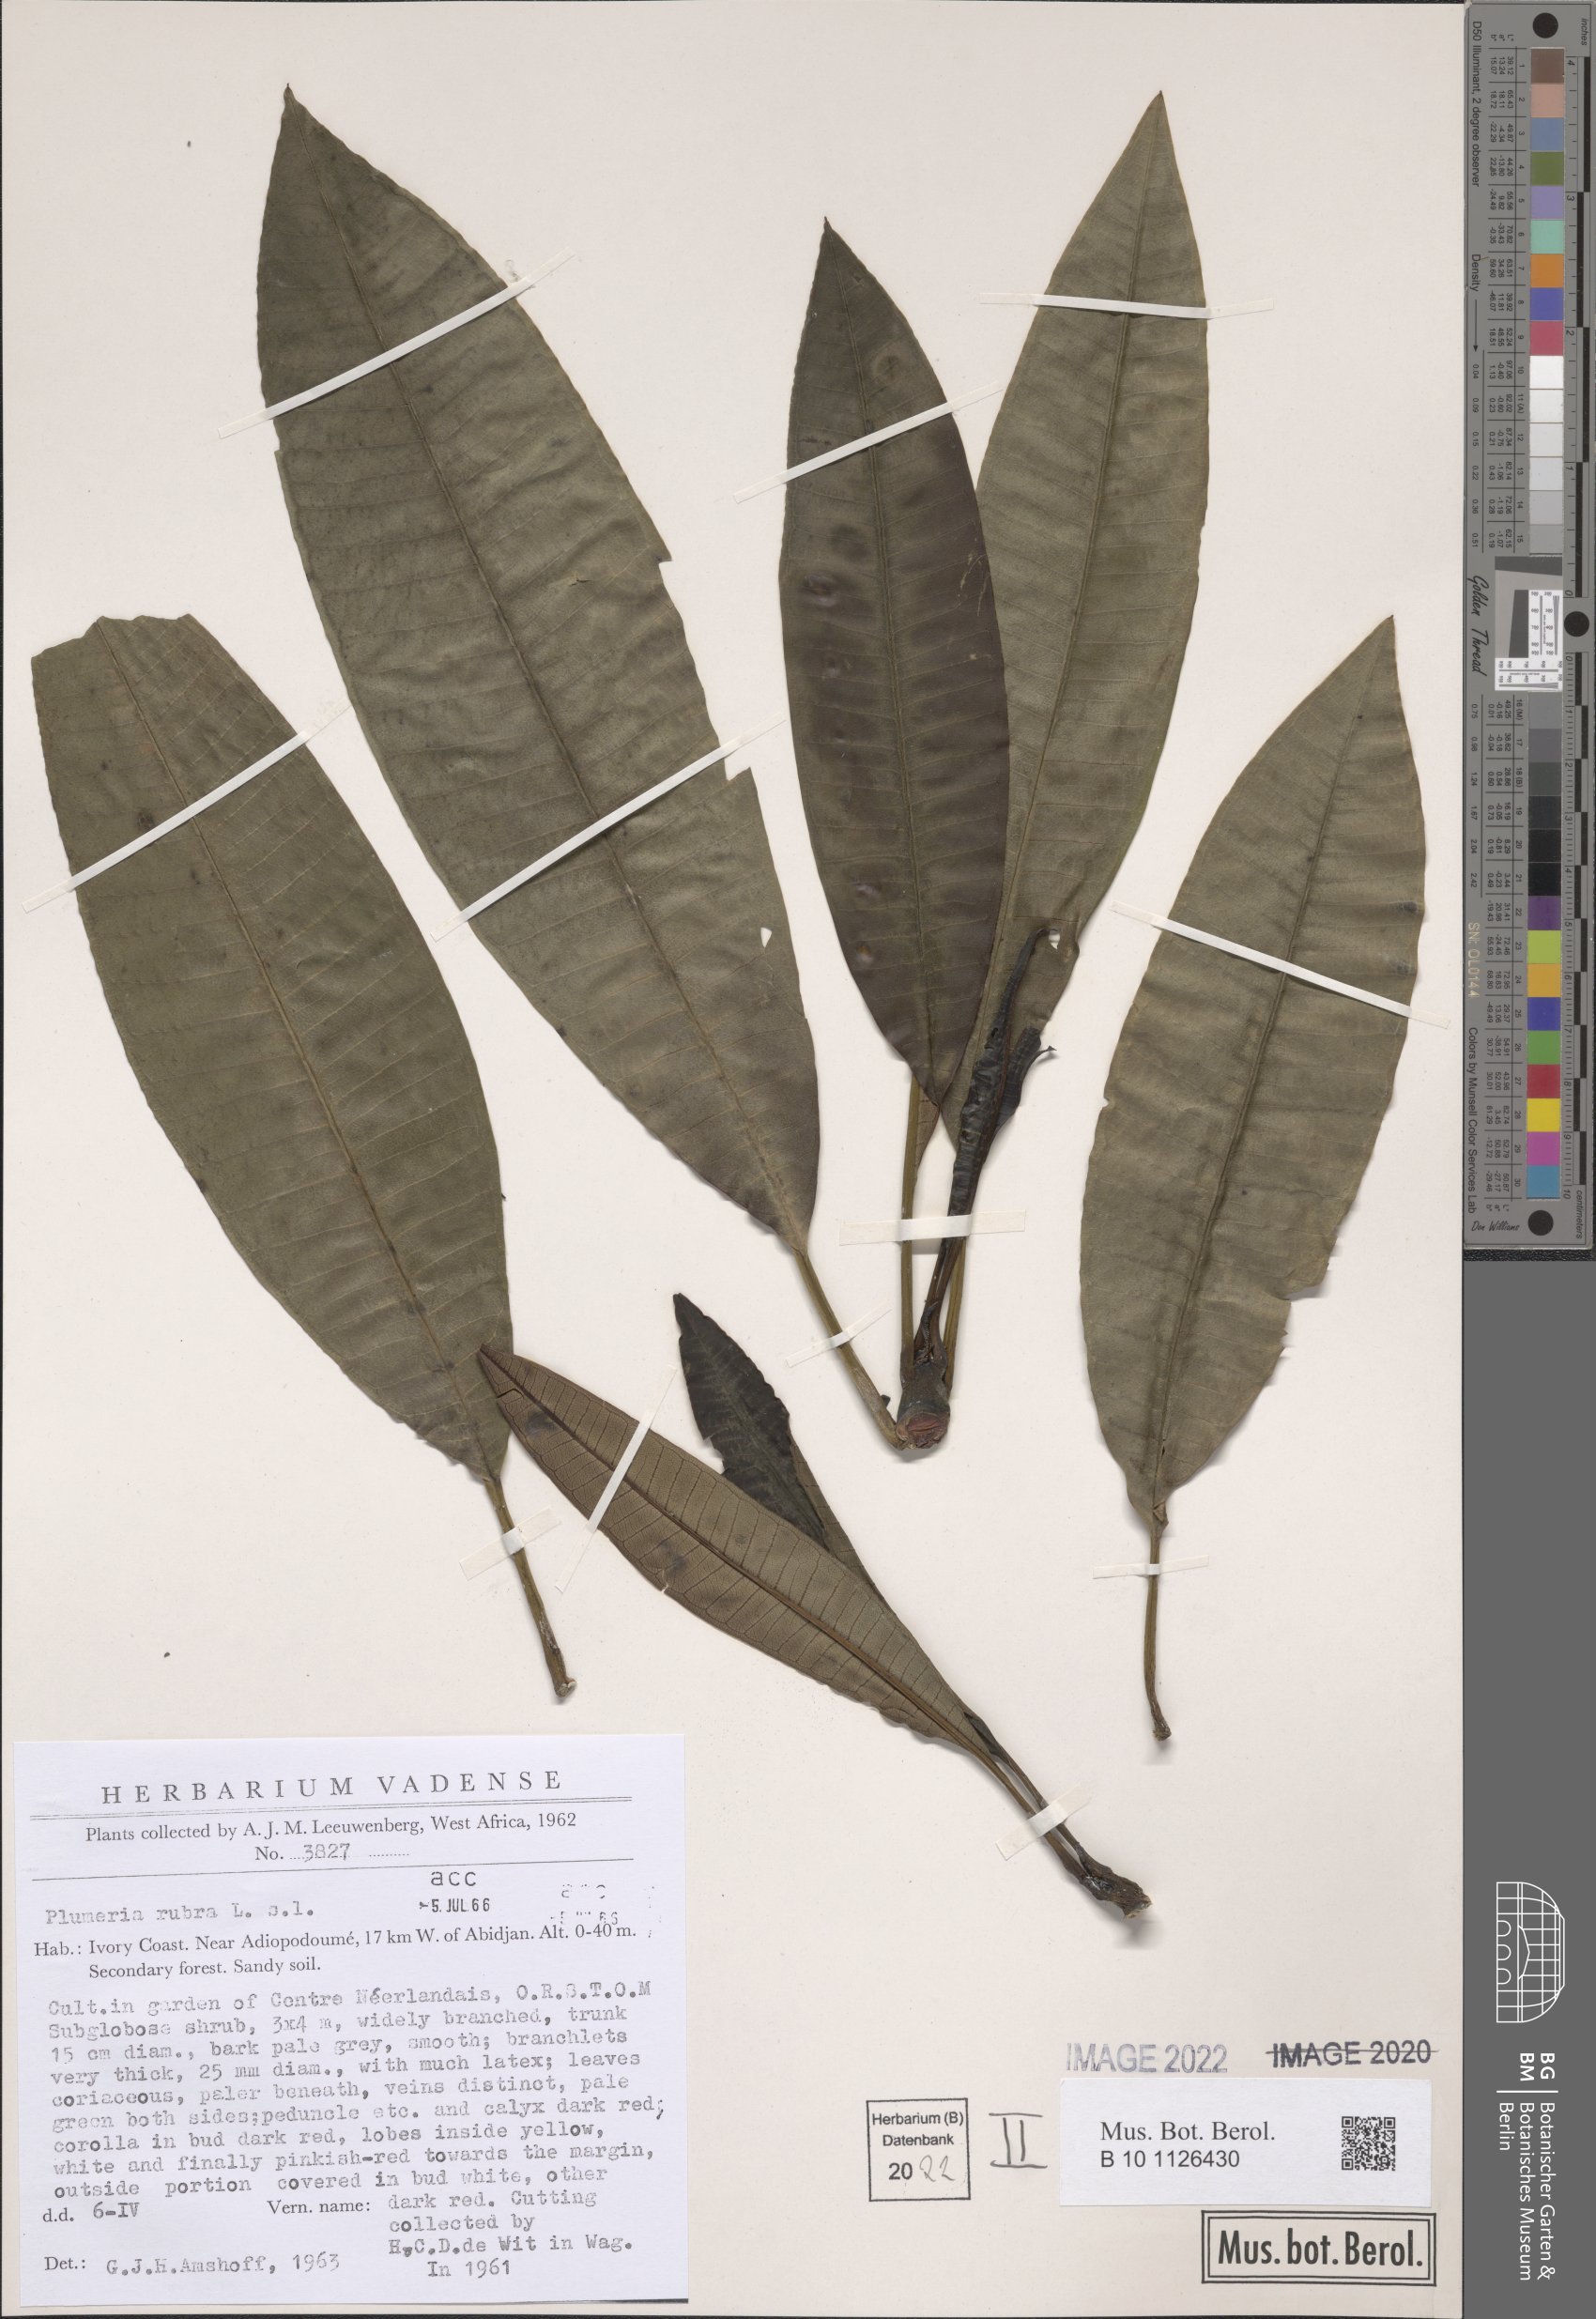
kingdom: Plantae
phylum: Tracheophyta
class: Magnoliopsida
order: Gentianales
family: Apocynaceae
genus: Plumeria
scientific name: Plumeria rubra
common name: Pagoda-tree
